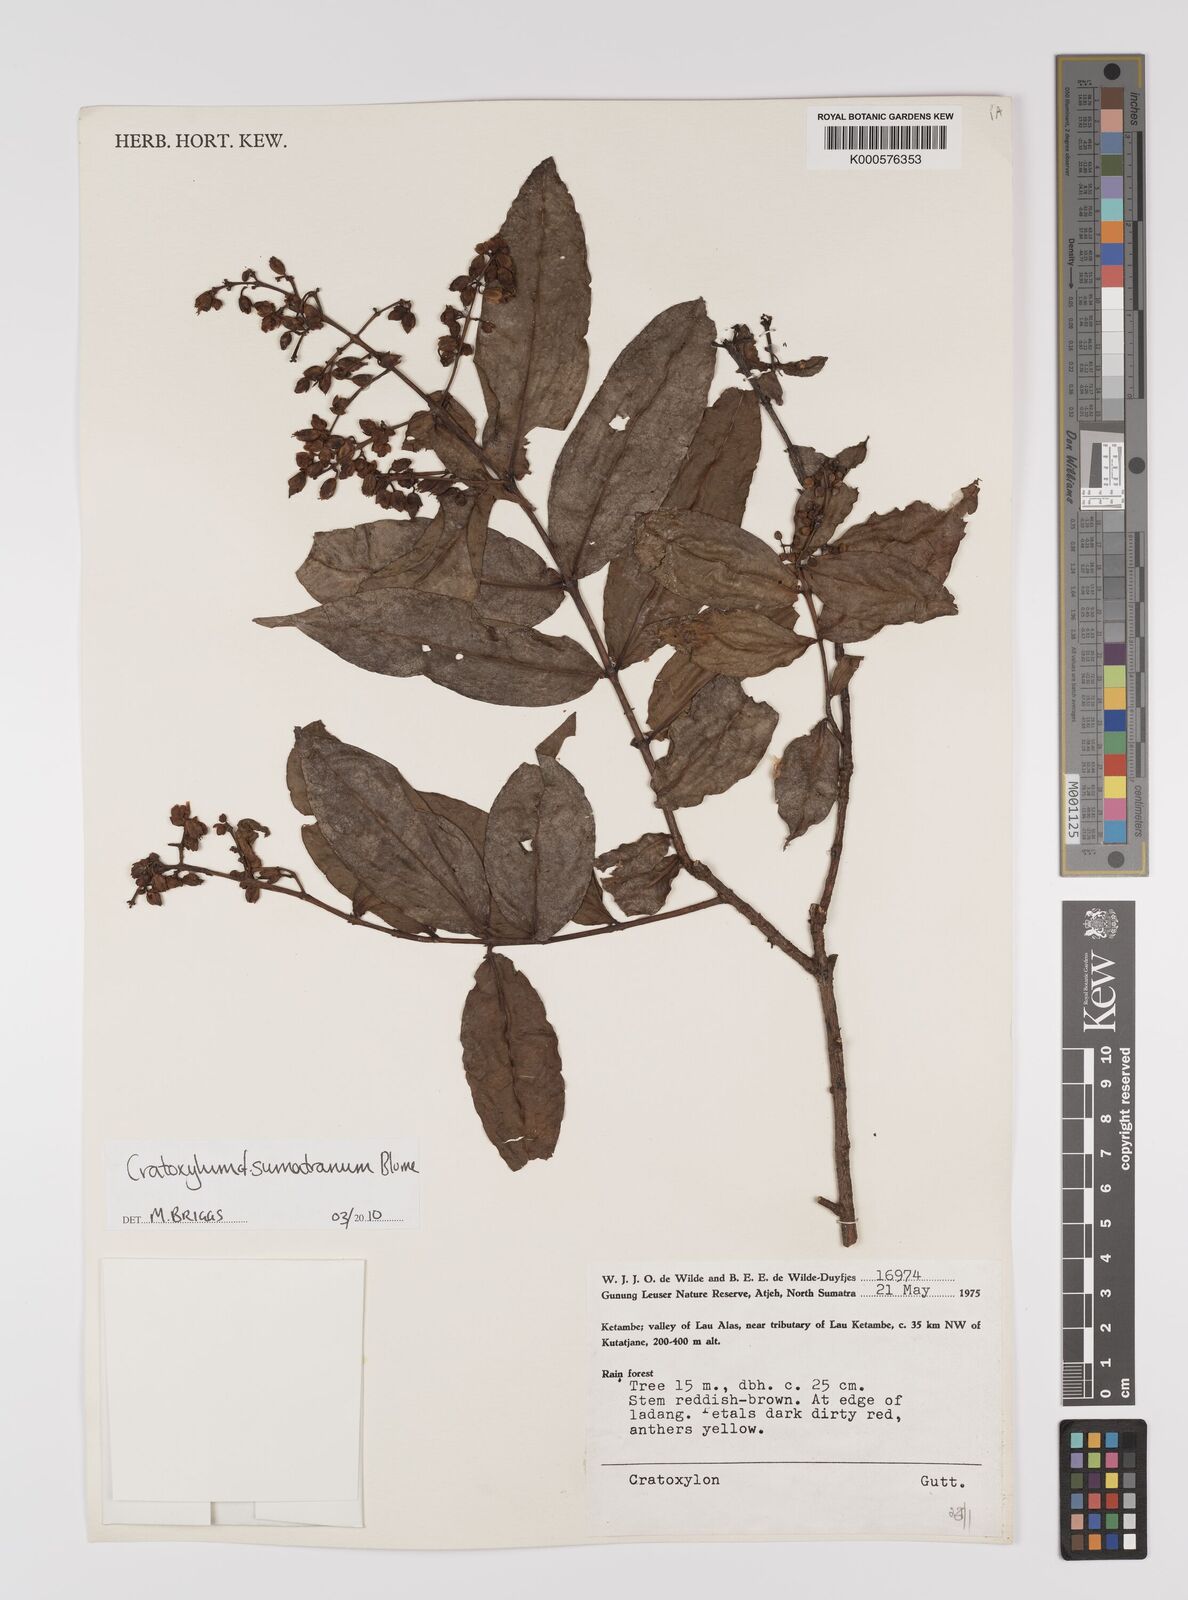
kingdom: Plantae
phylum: Tracheophyta
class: Magnoliopsida
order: Malpighiales
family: Hypericaceae
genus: Cratoxylum
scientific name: Cratoxylum sumatranum
